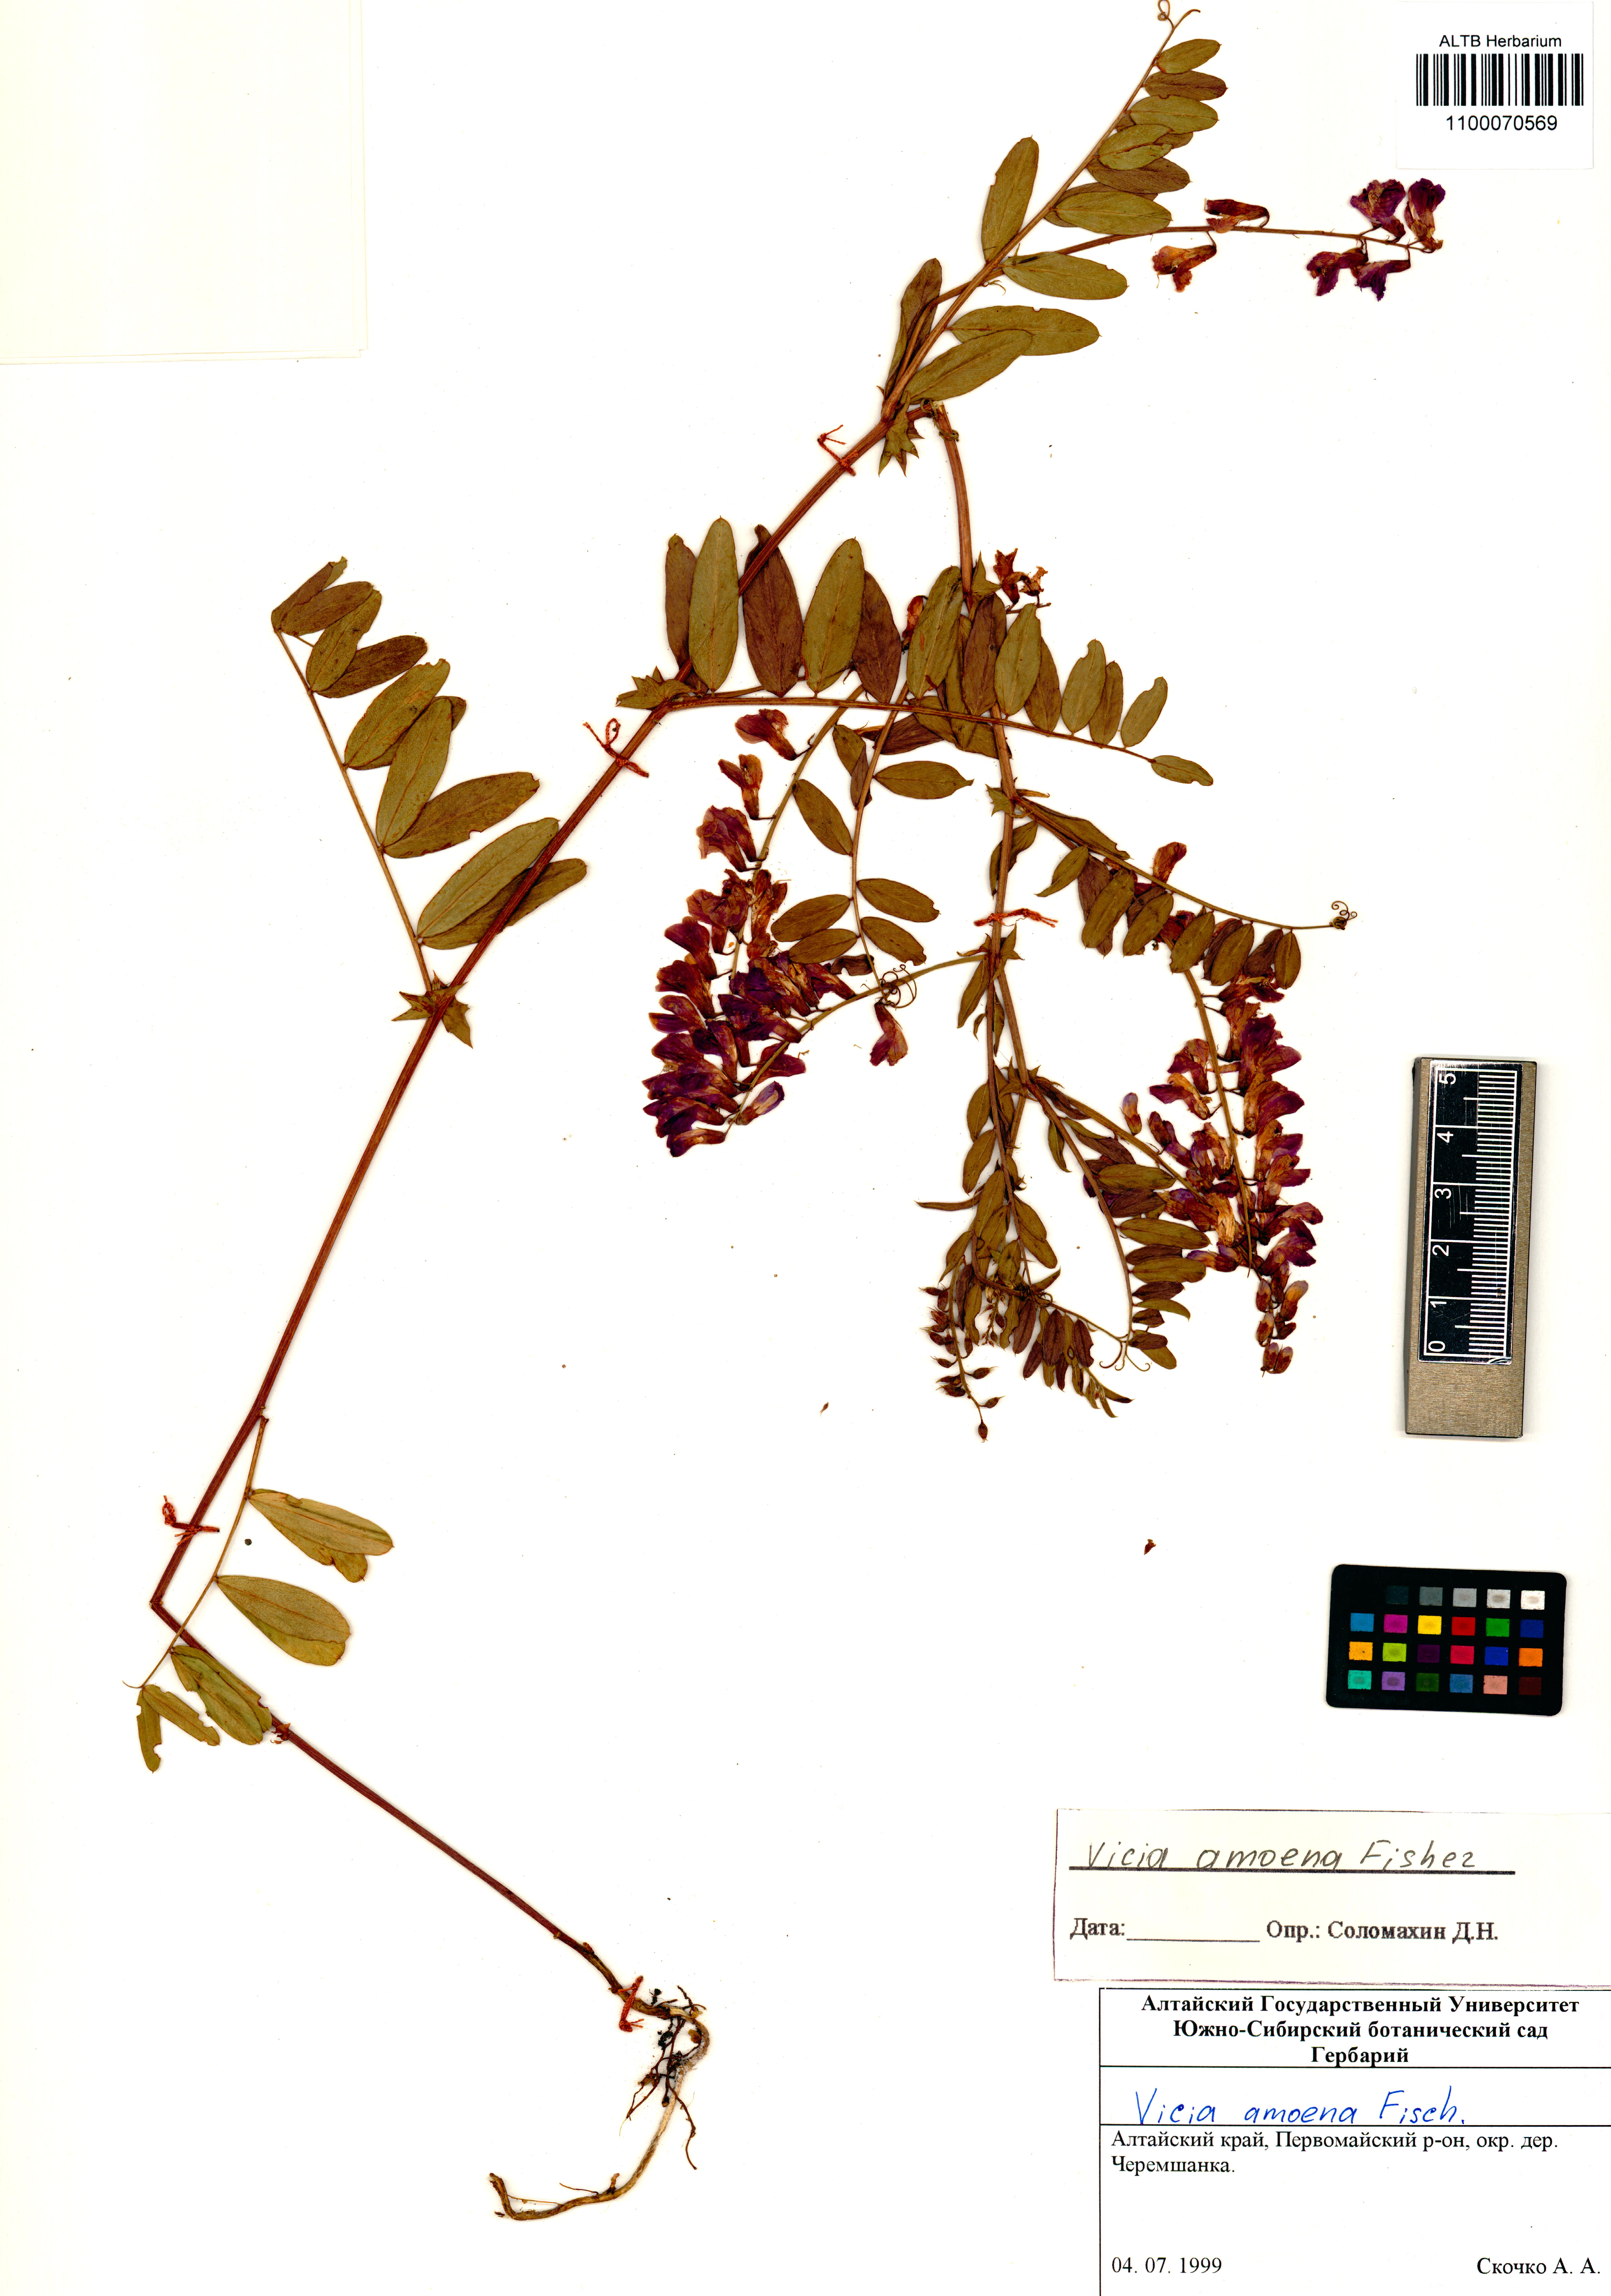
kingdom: Plantae
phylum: Tracheophyta
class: Magnoliopsida
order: Fabales
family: Fabaceae
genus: Vicia
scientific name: Vicia amoena
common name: Cheder ebs
